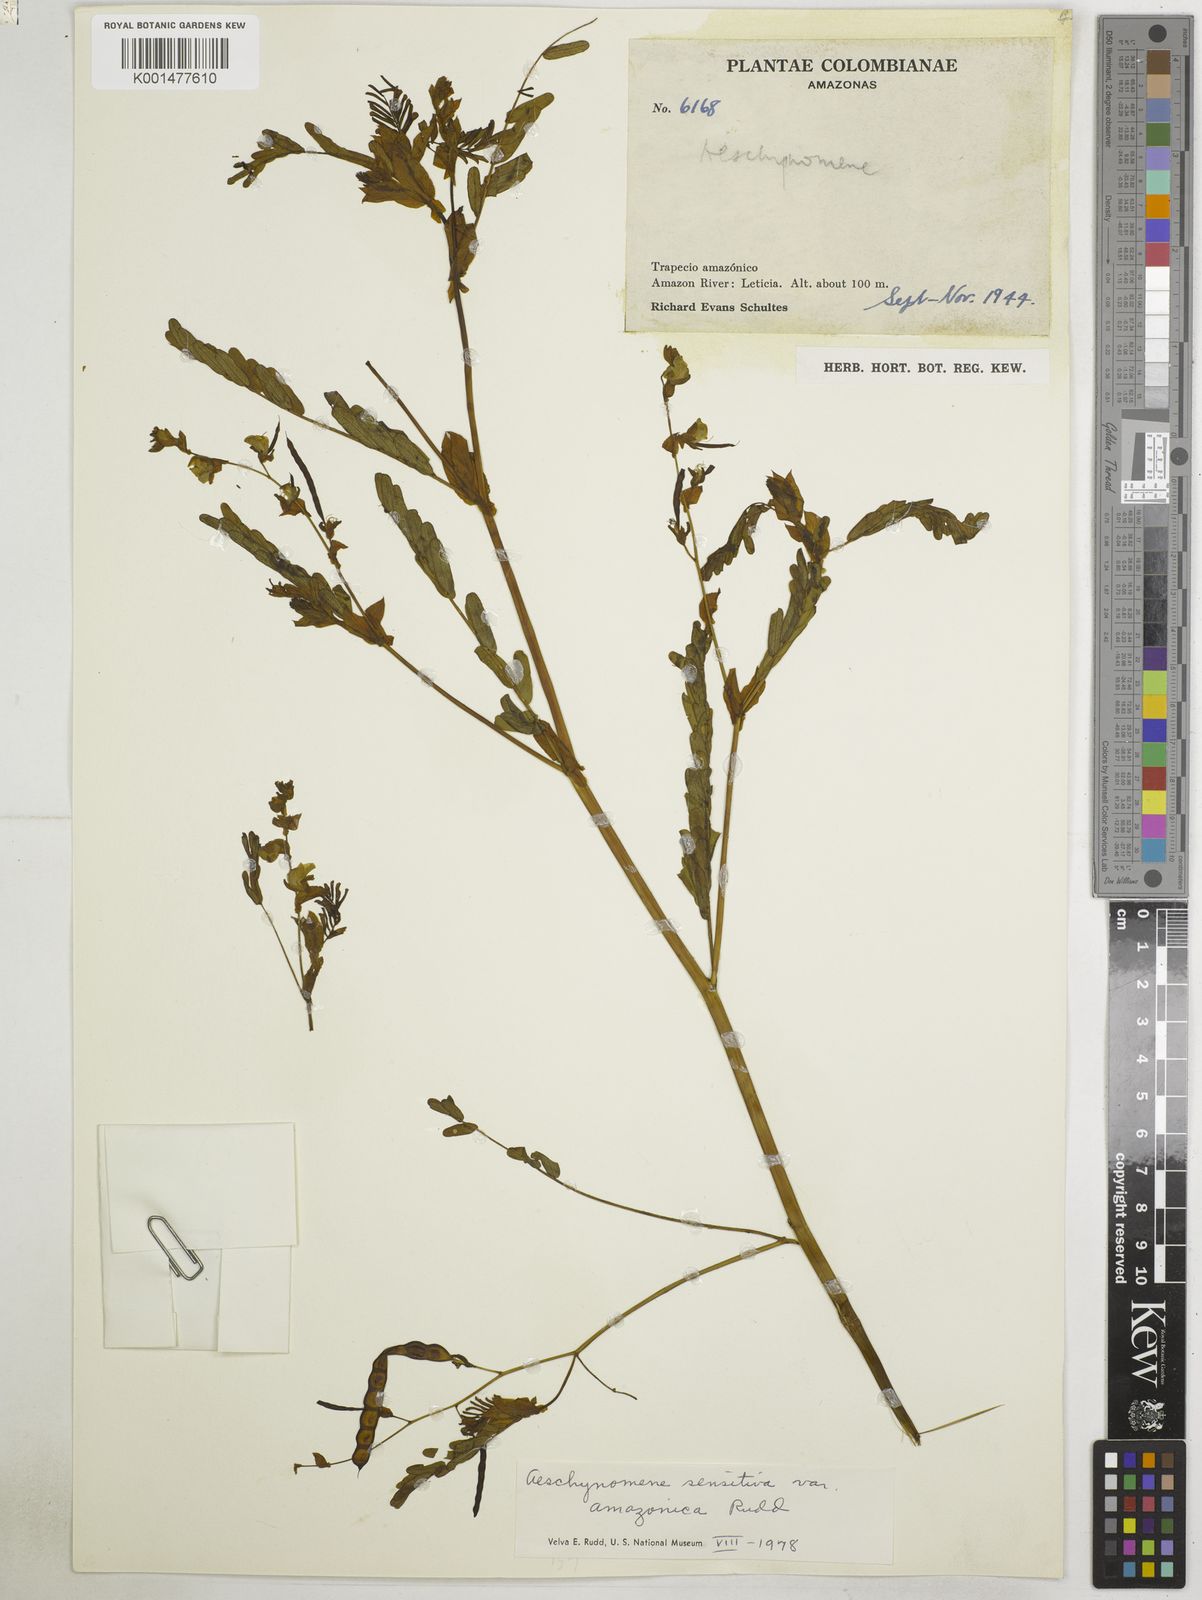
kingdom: Plantae
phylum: Tracheophyta
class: Magnoliopsida
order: Fabales
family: Fabaceae
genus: Aeschynomene
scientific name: Aeschynomene sensitiva
